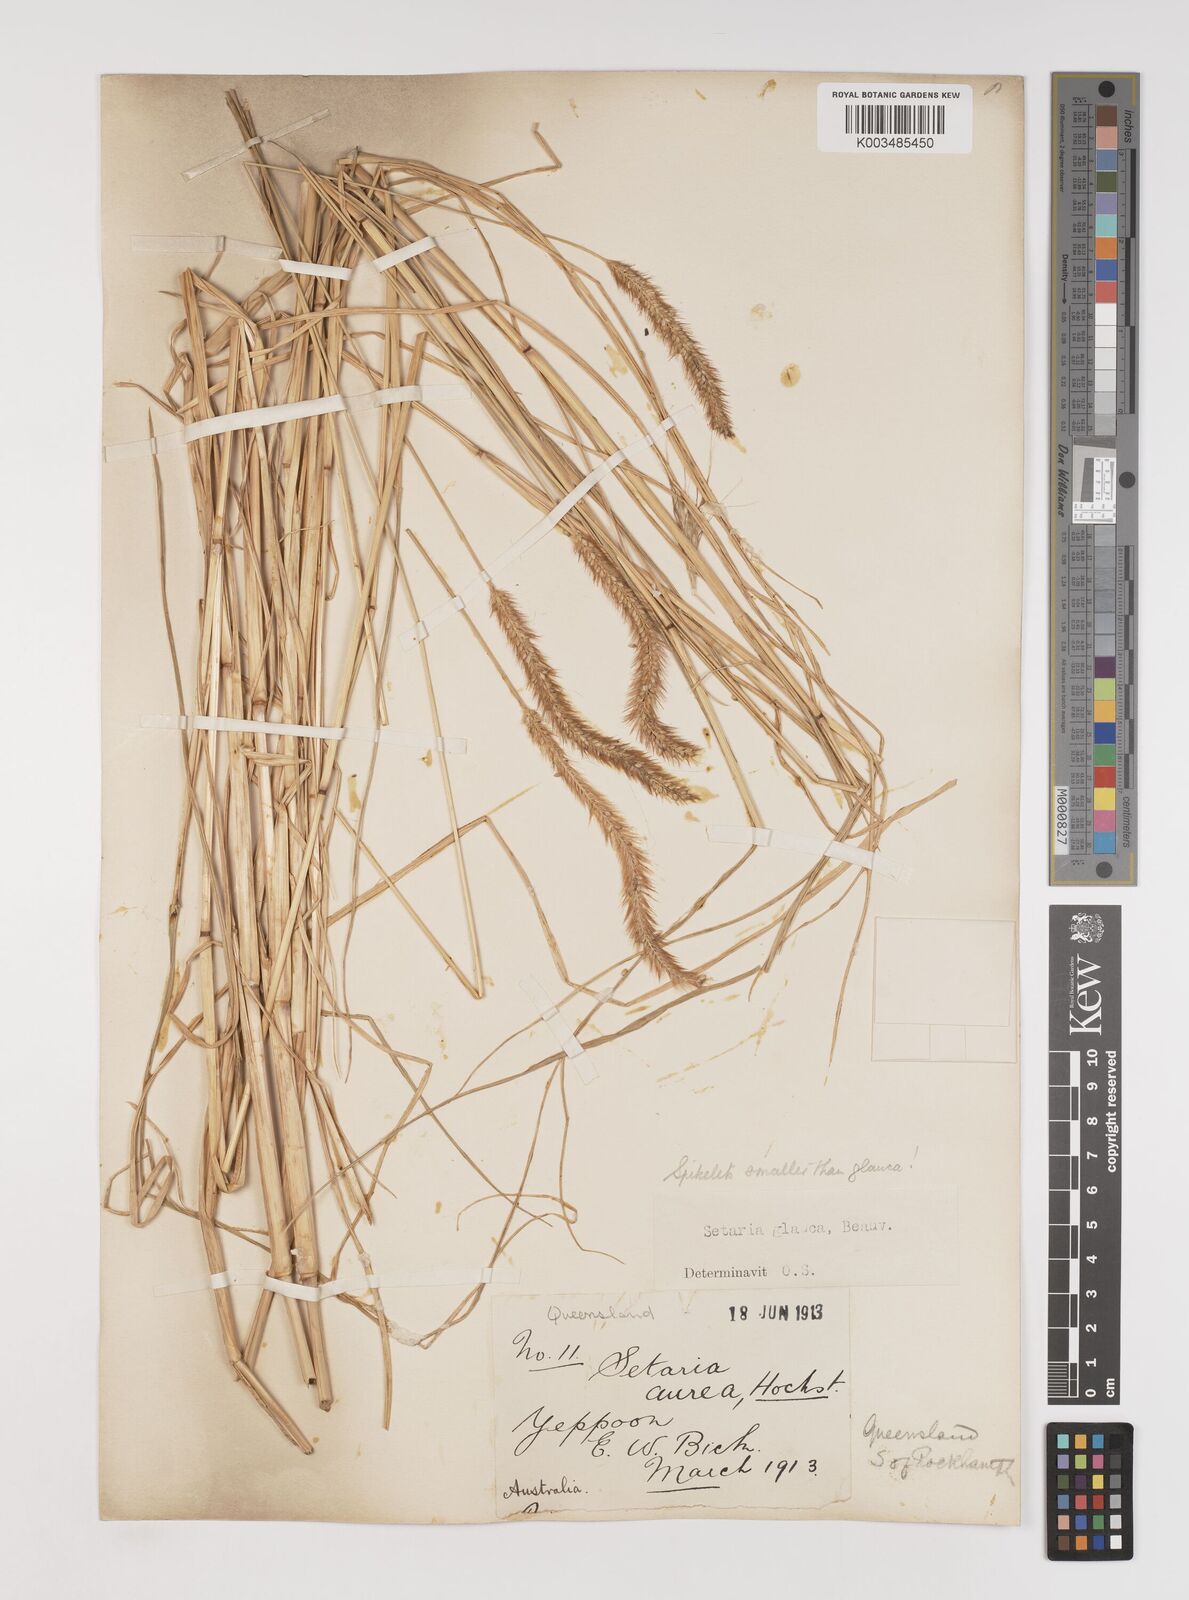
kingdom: Plantae
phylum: Tracheophyta
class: Liliopsida
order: Poales
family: Poaceae
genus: Setaria
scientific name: Setaria pumila
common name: Yellow bristle-grass
